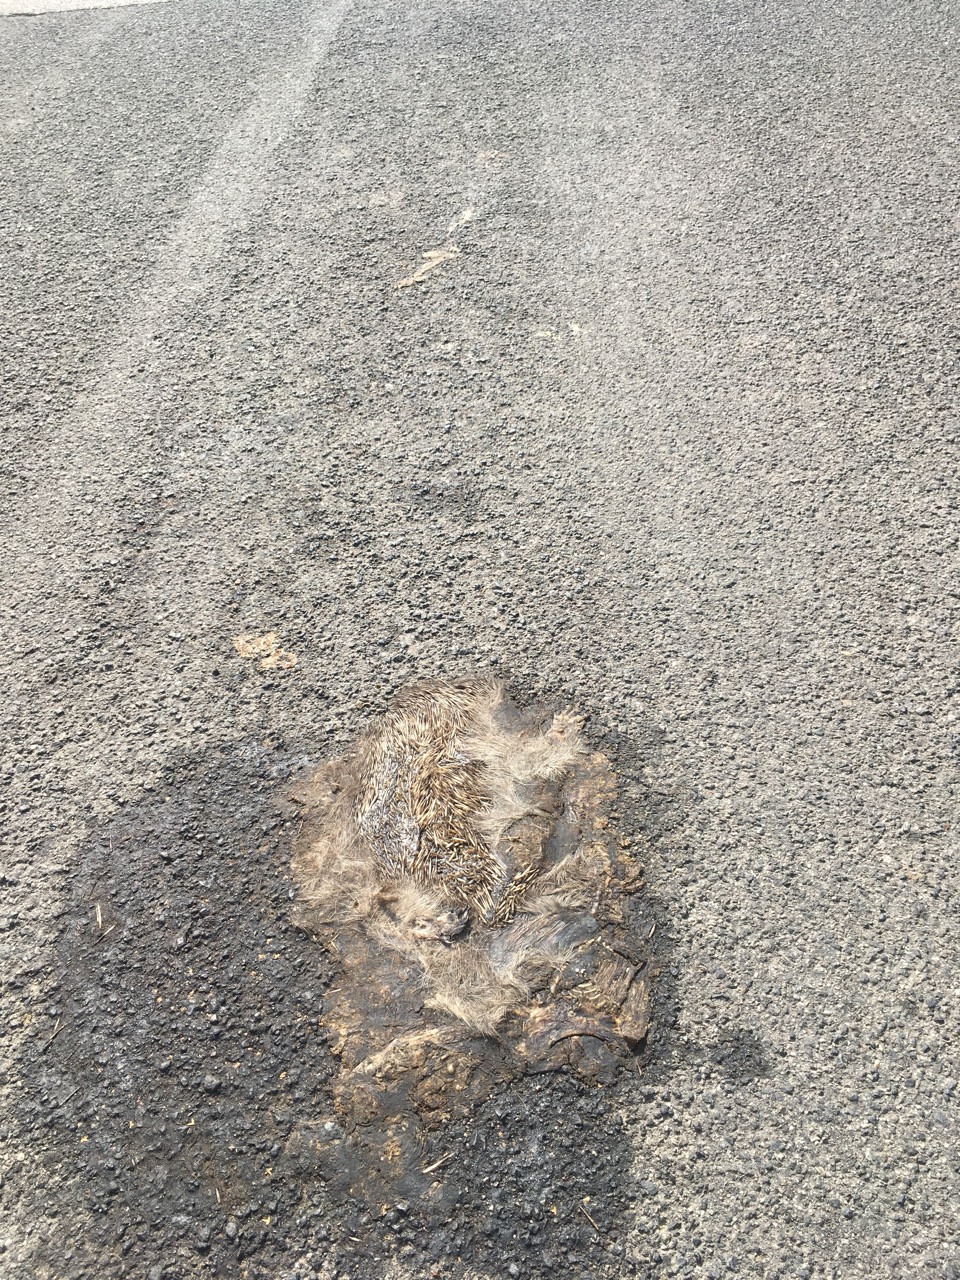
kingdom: Animalia
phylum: Chordata
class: Mammalia
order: Erinaceomorpha
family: Erinaceidae
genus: Erinaceus
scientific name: Erinaceus
